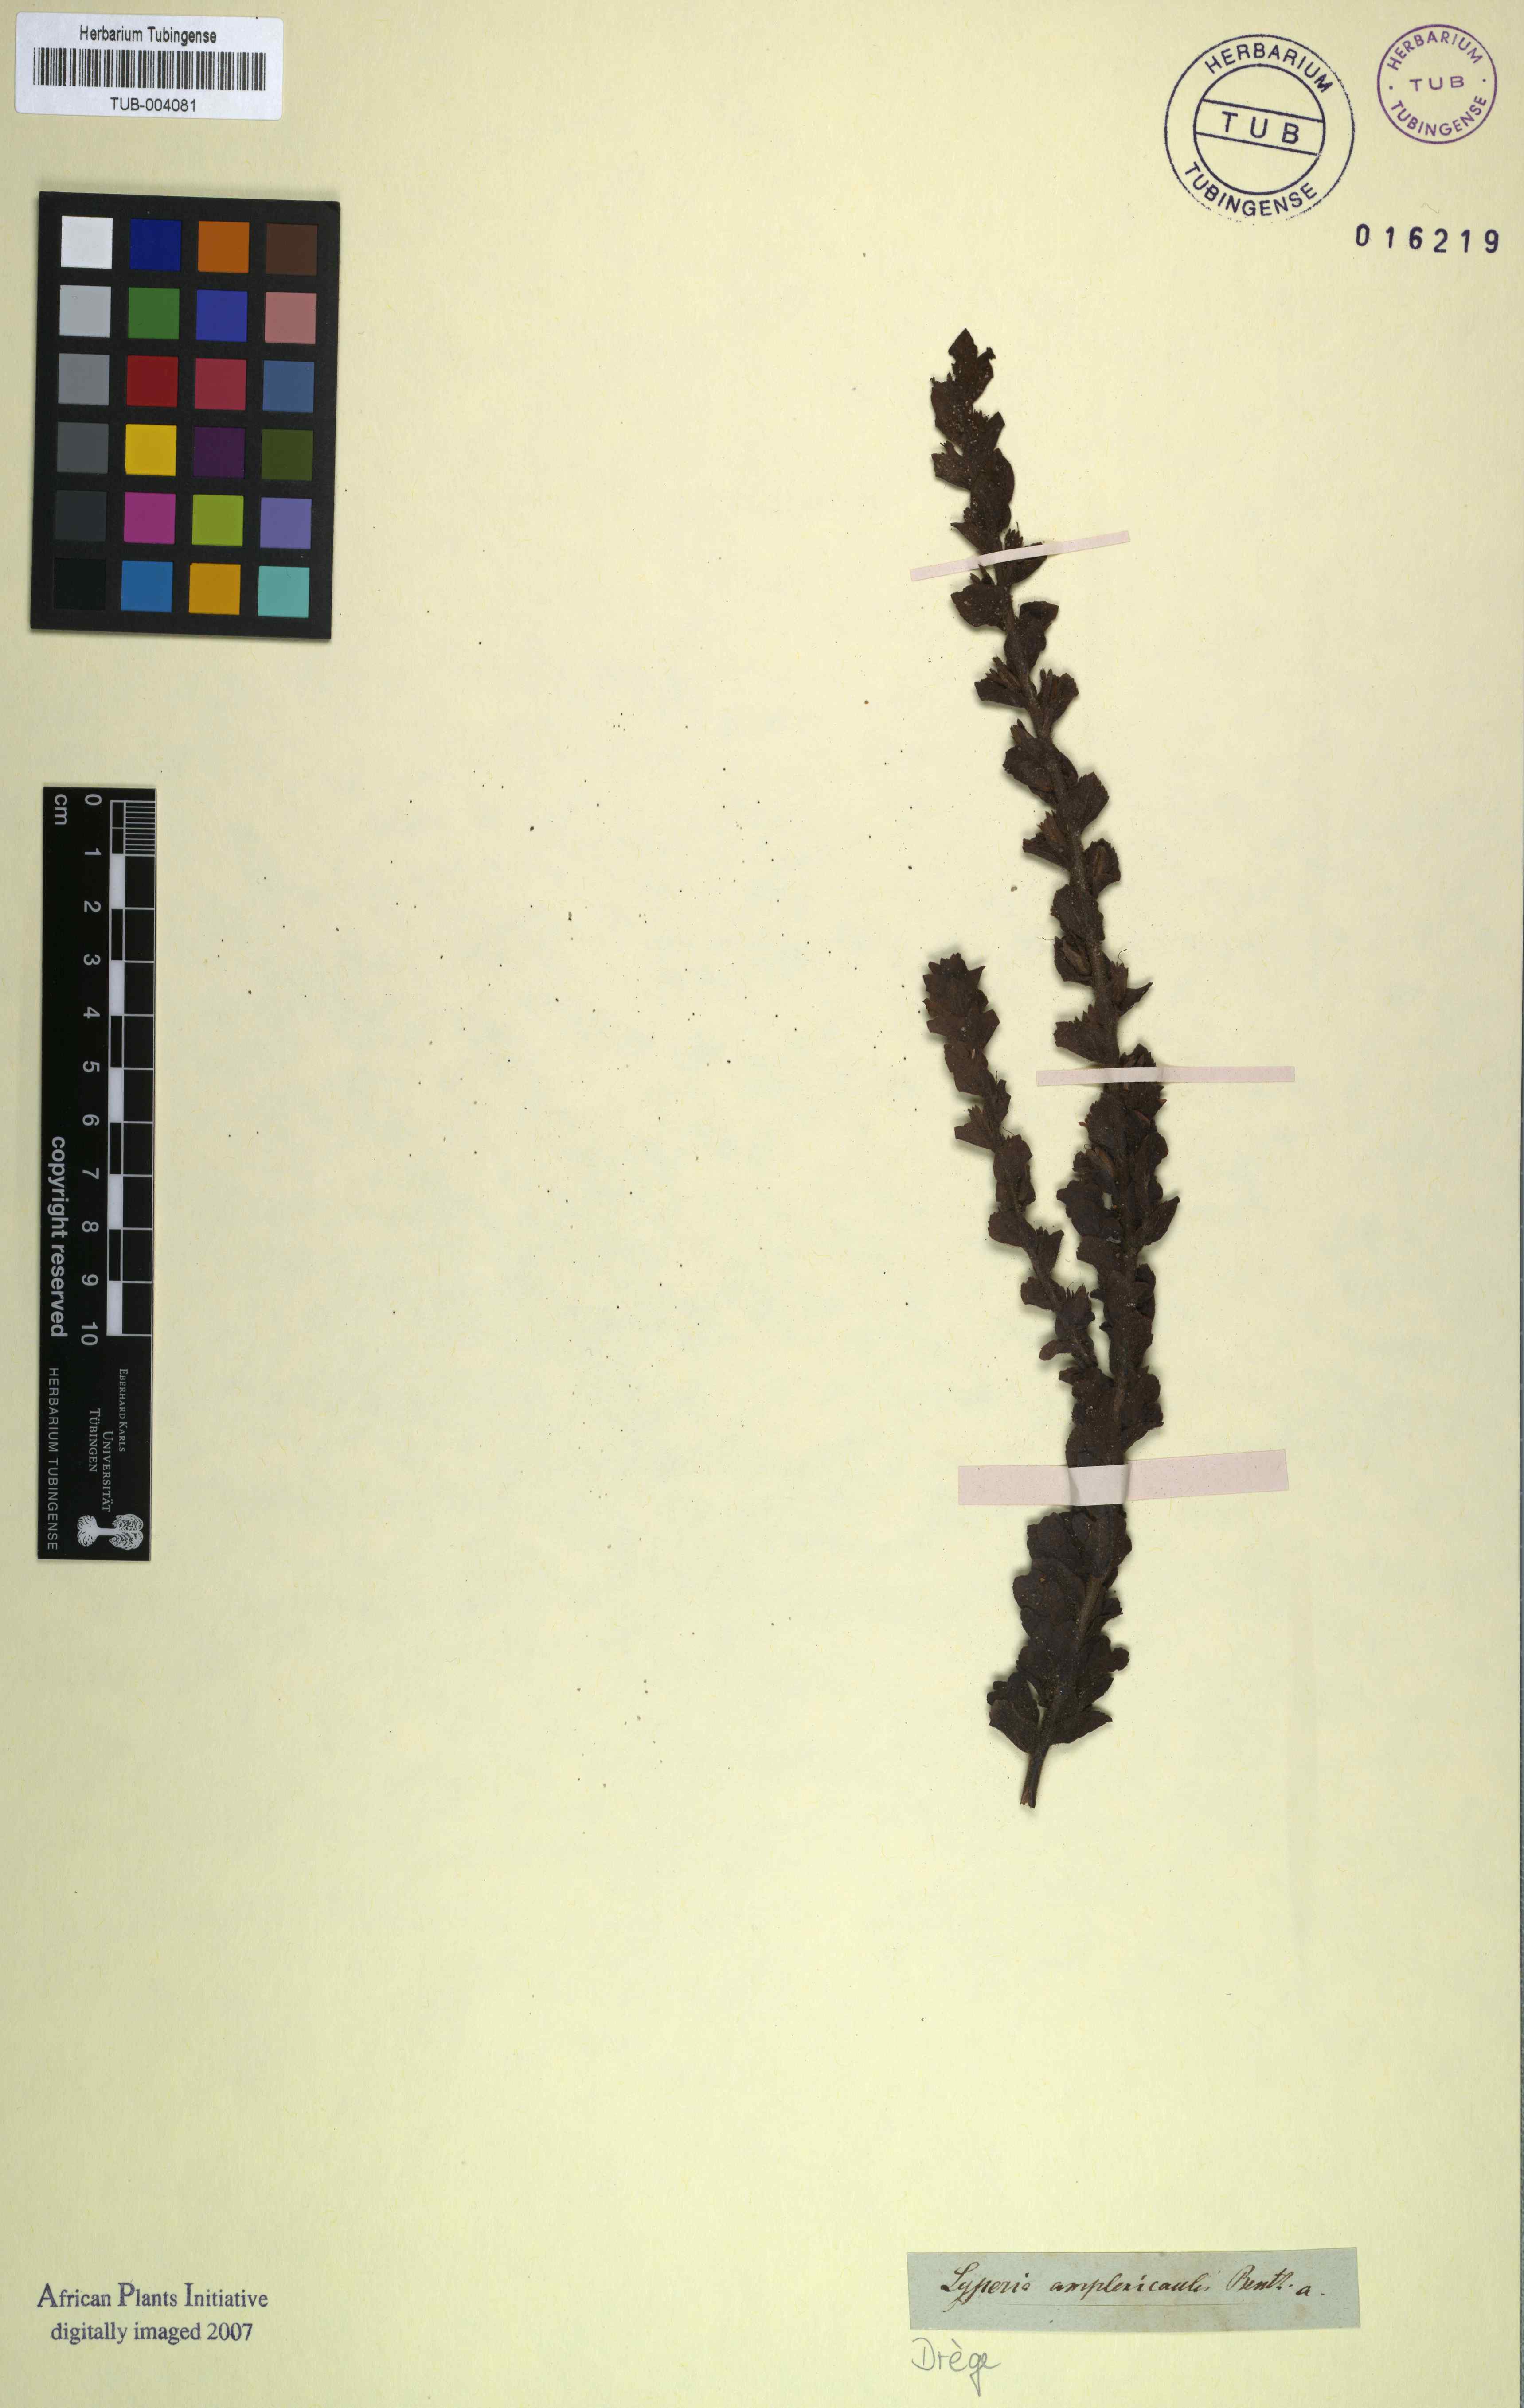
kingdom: Plantae
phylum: Tracheophyta
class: Magnoliopsida
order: Lamiales
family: Scrophulariaceae
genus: Jamesbrittenia
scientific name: Jamesbrittenia amplexicaulis
